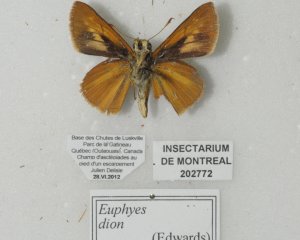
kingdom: Animalia
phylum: Arthropoda
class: Insecta
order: Lepidoptera
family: Hesperiidae
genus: Euphyes
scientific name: Euphyes dion
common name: Dion Skipper
